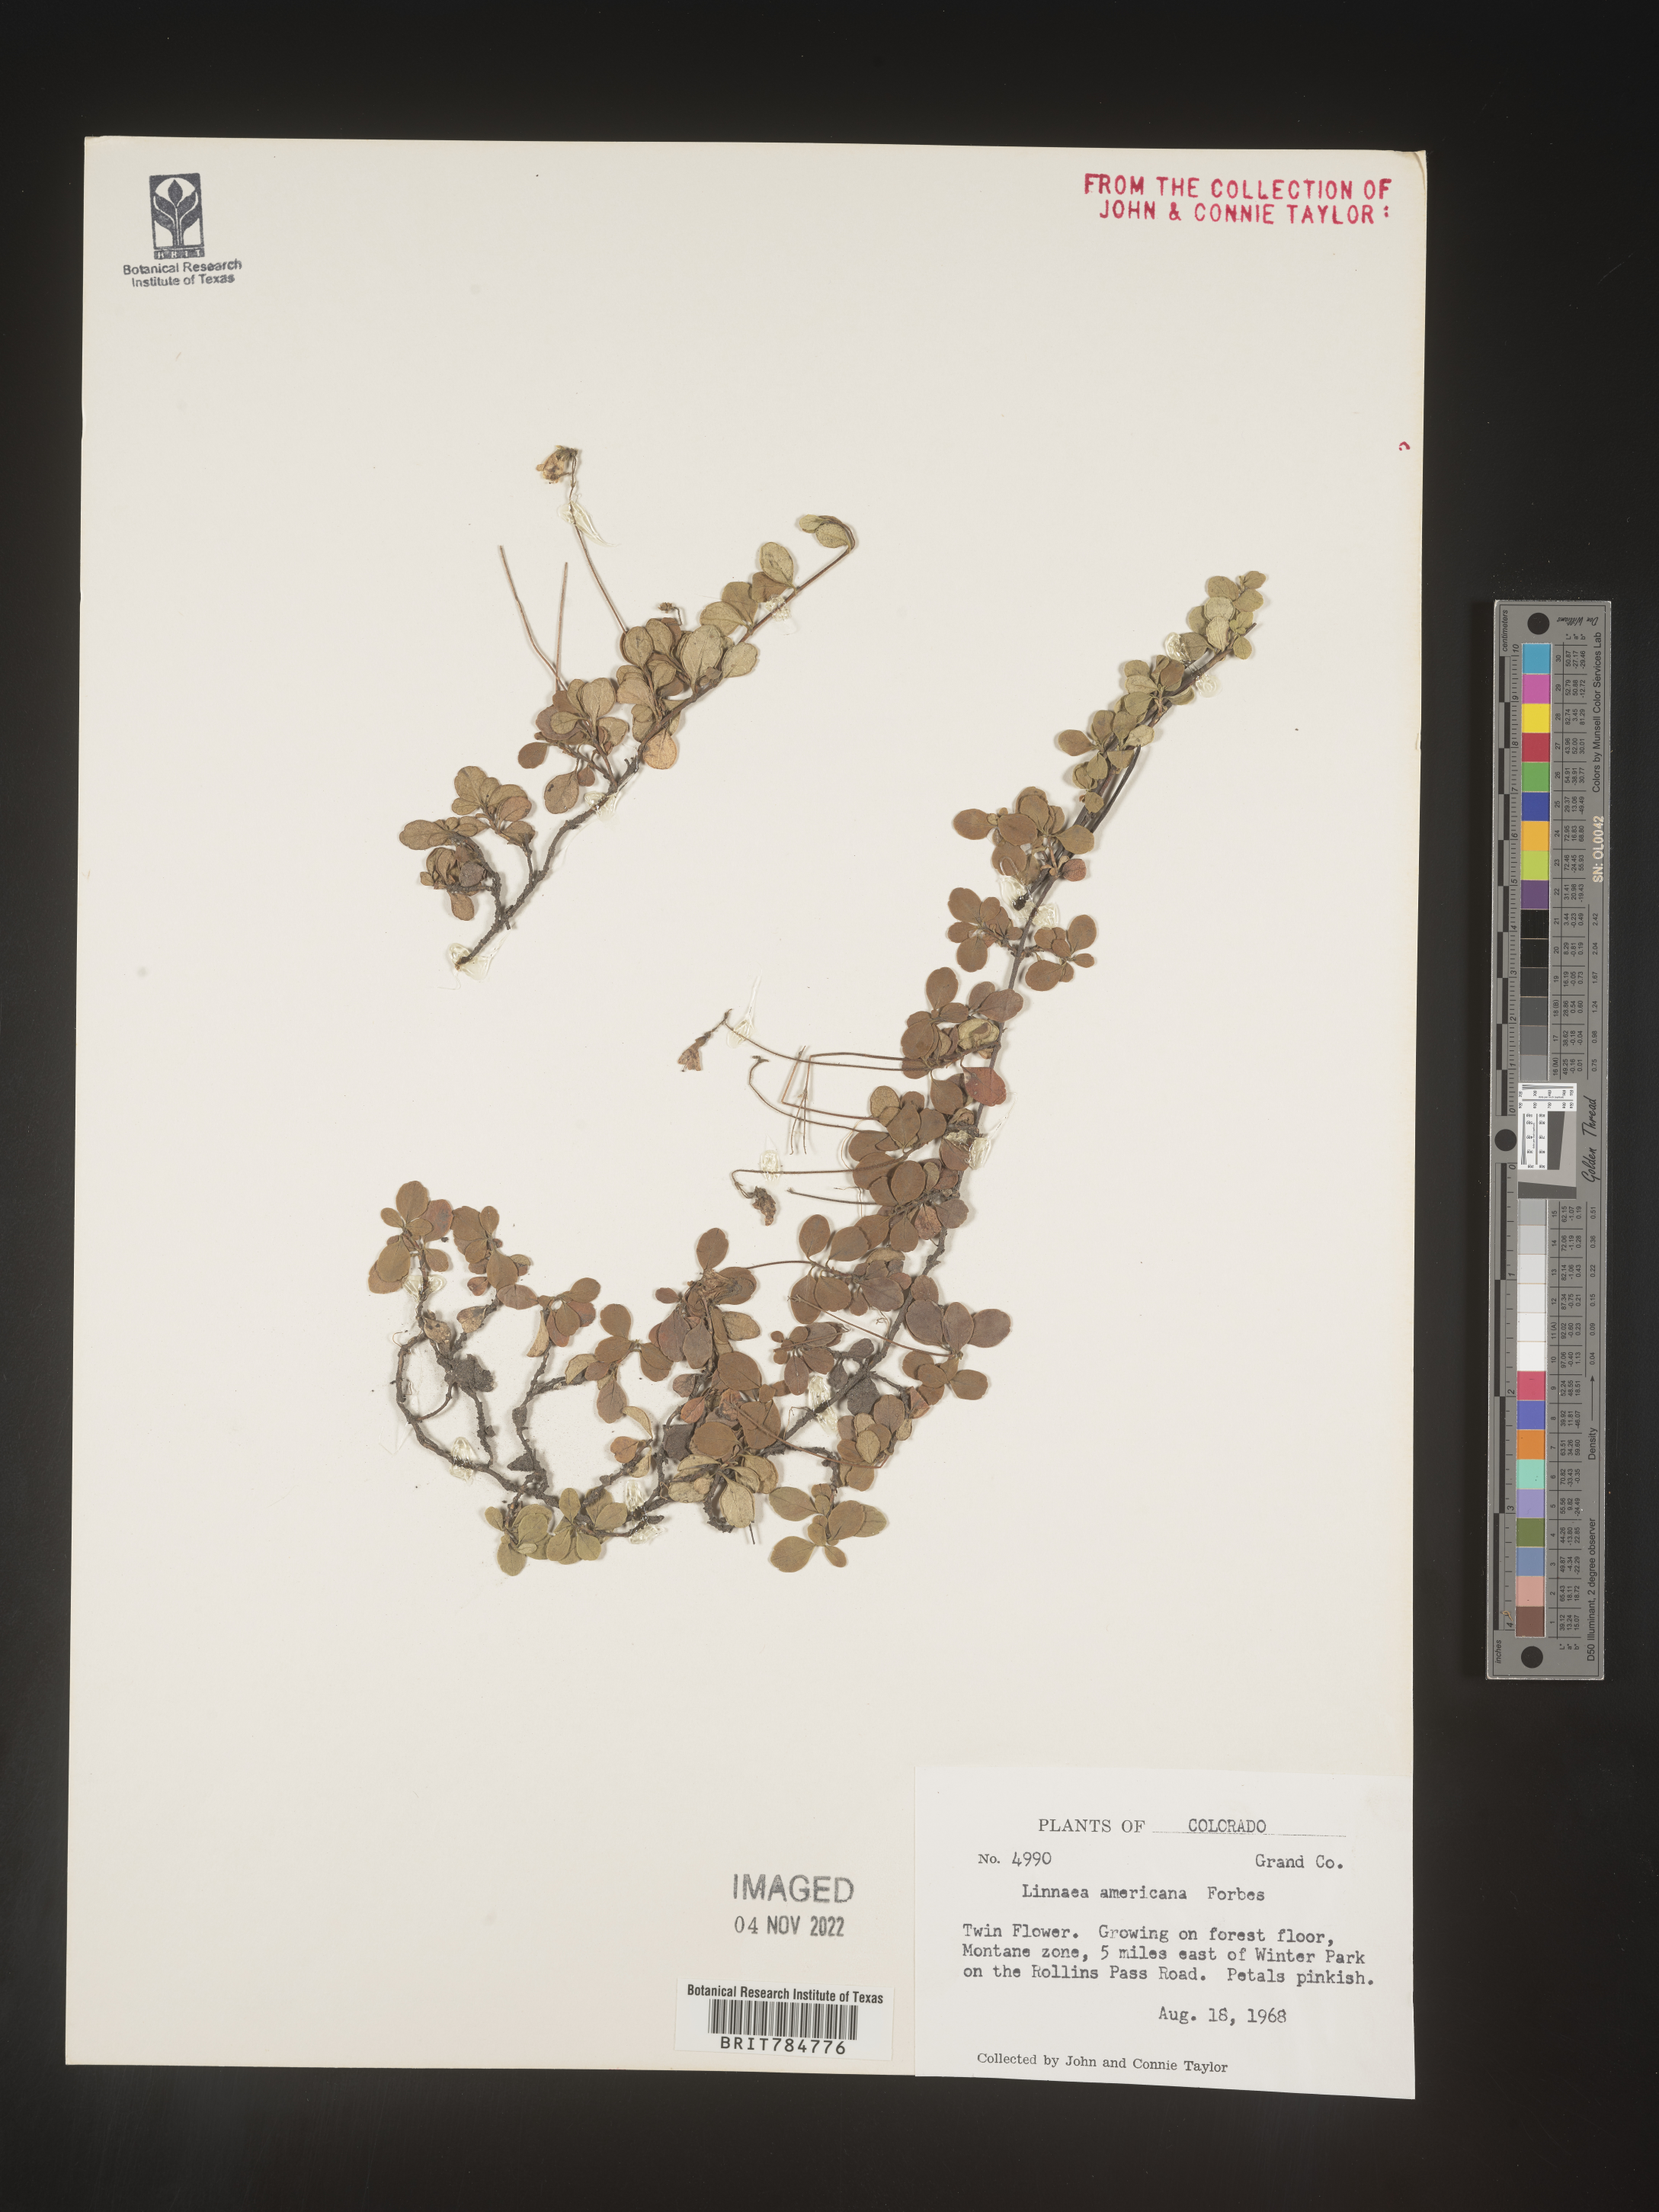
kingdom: Plantae
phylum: Tracheophyta
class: Magnoliopsida
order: Dipsacales
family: Caprifoliaceae
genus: Linnaea
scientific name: Linnaea borealis
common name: Twinflower
